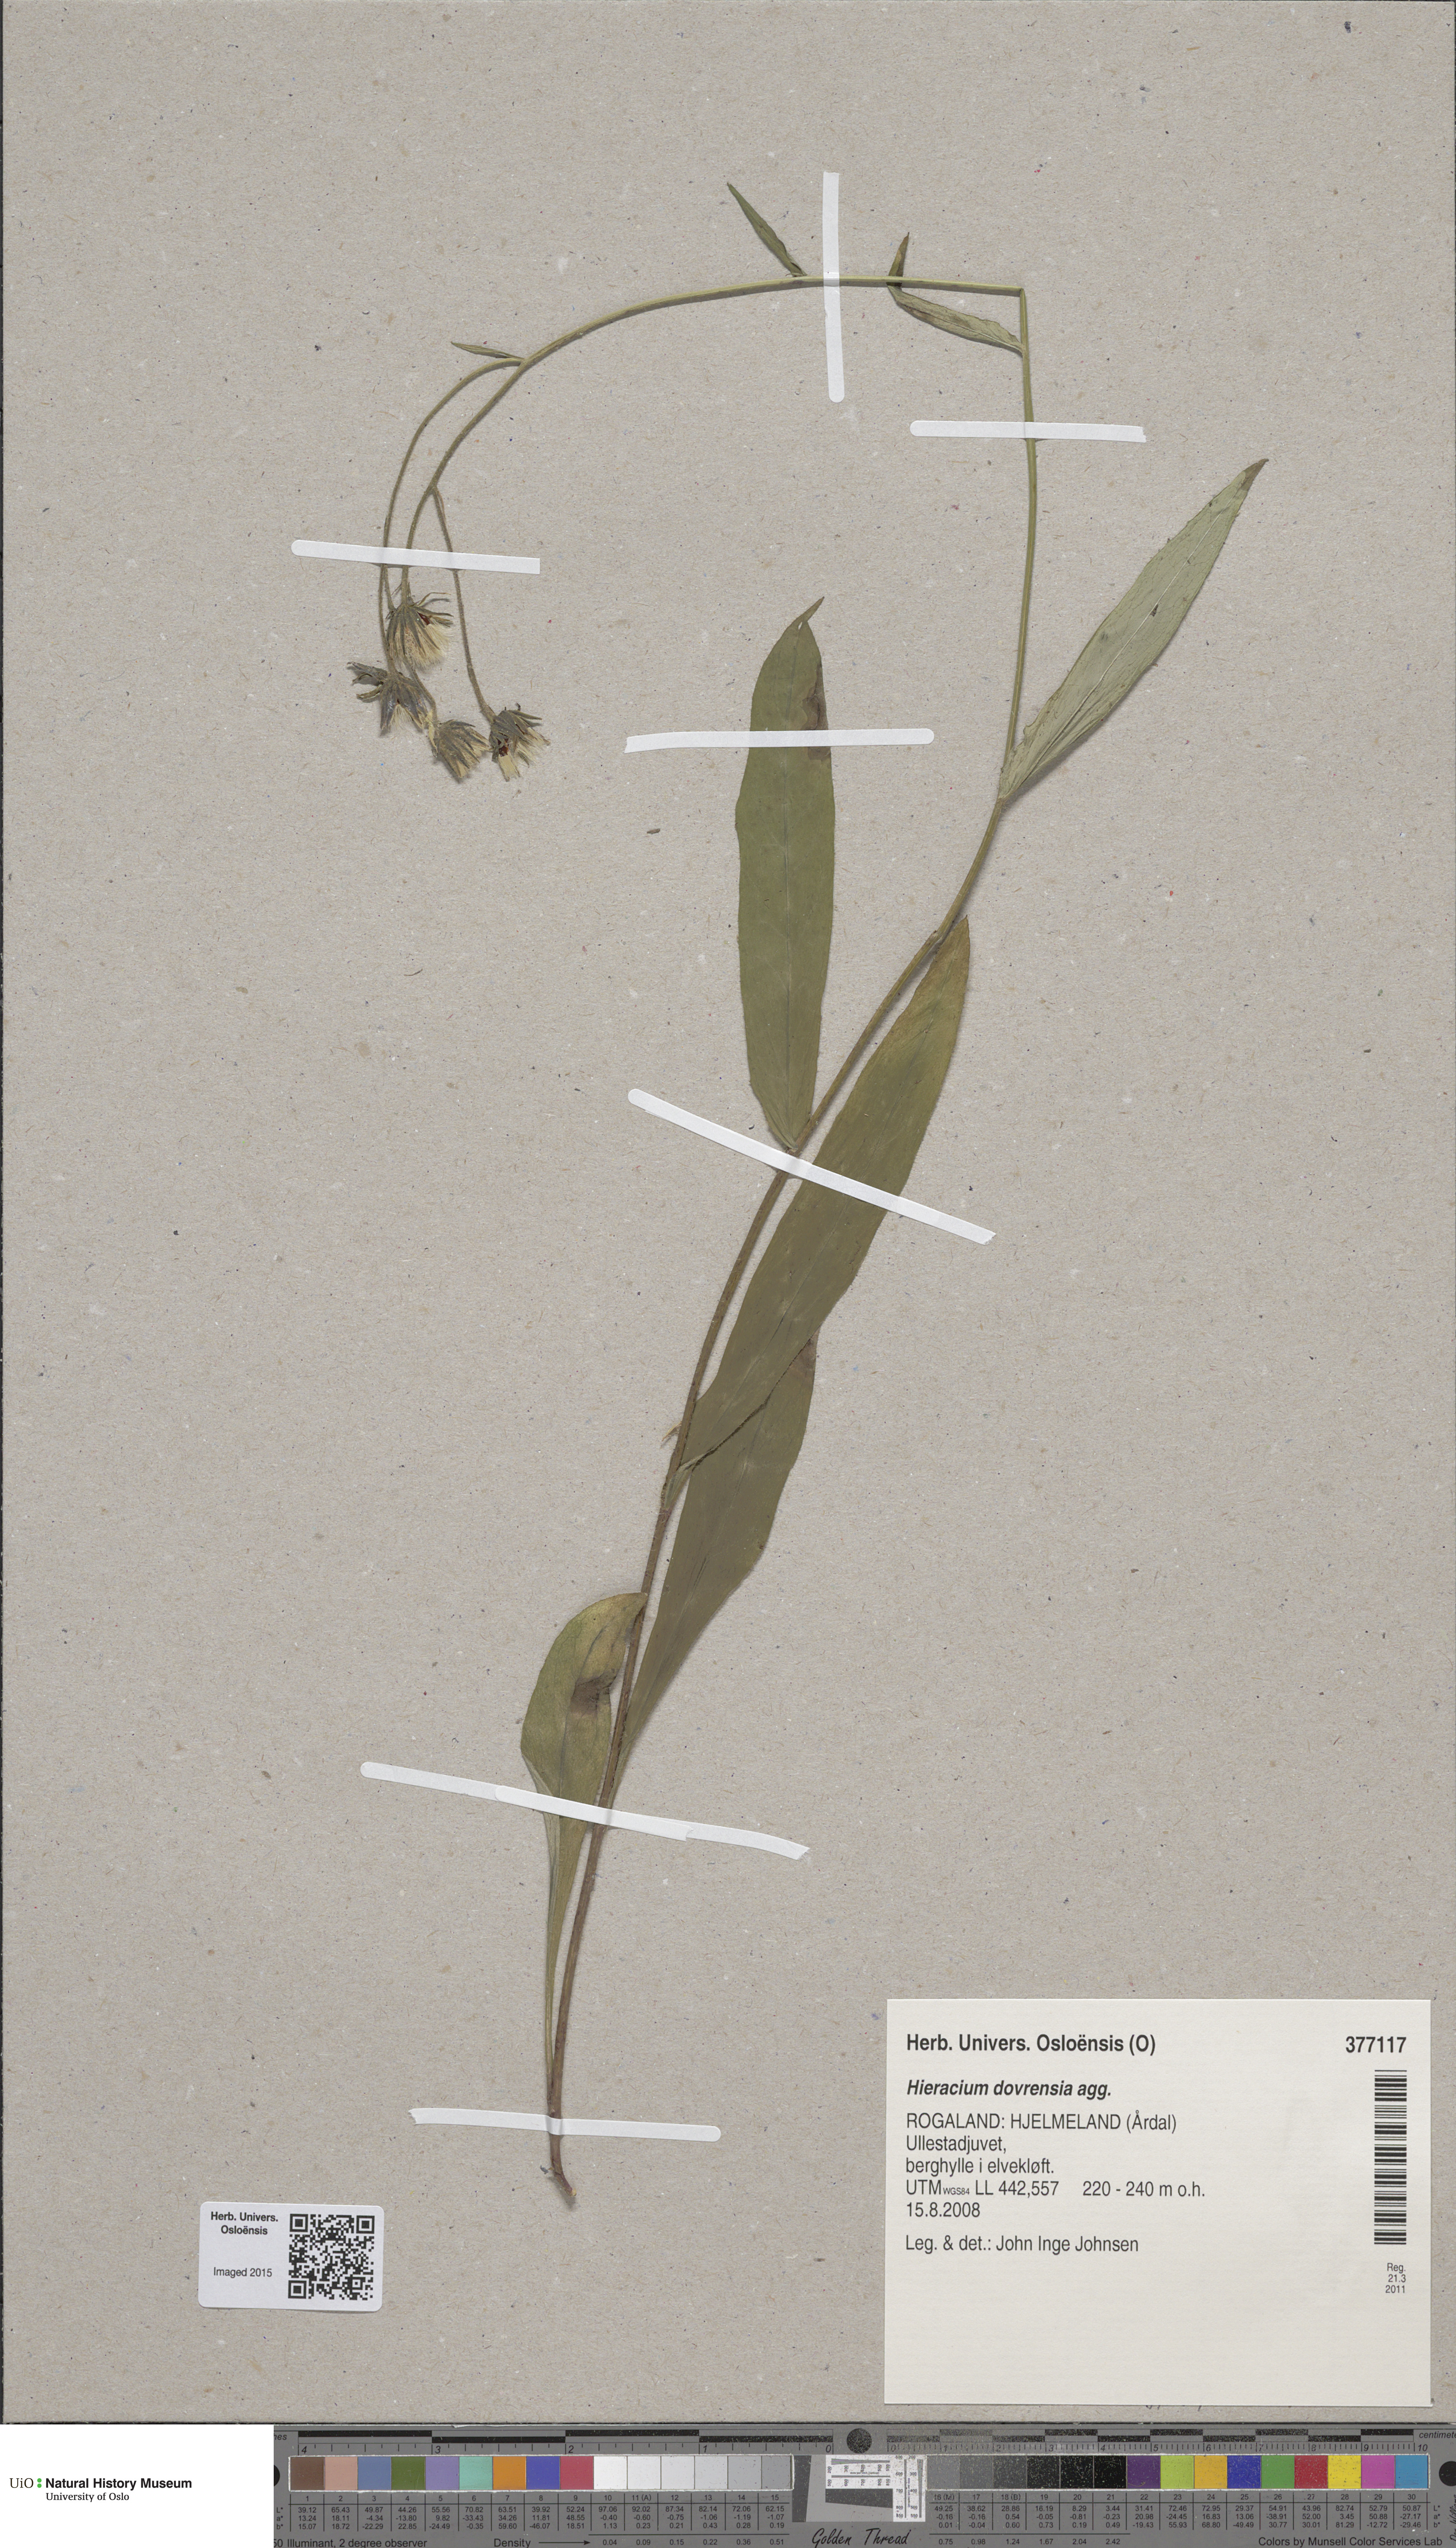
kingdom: Plantae
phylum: Tracheophyta
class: Magnoliopsida
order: Asterales
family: Asteraceae
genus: Hieracium
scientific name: Hieracium dovrense
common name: Dovre hawkweed
